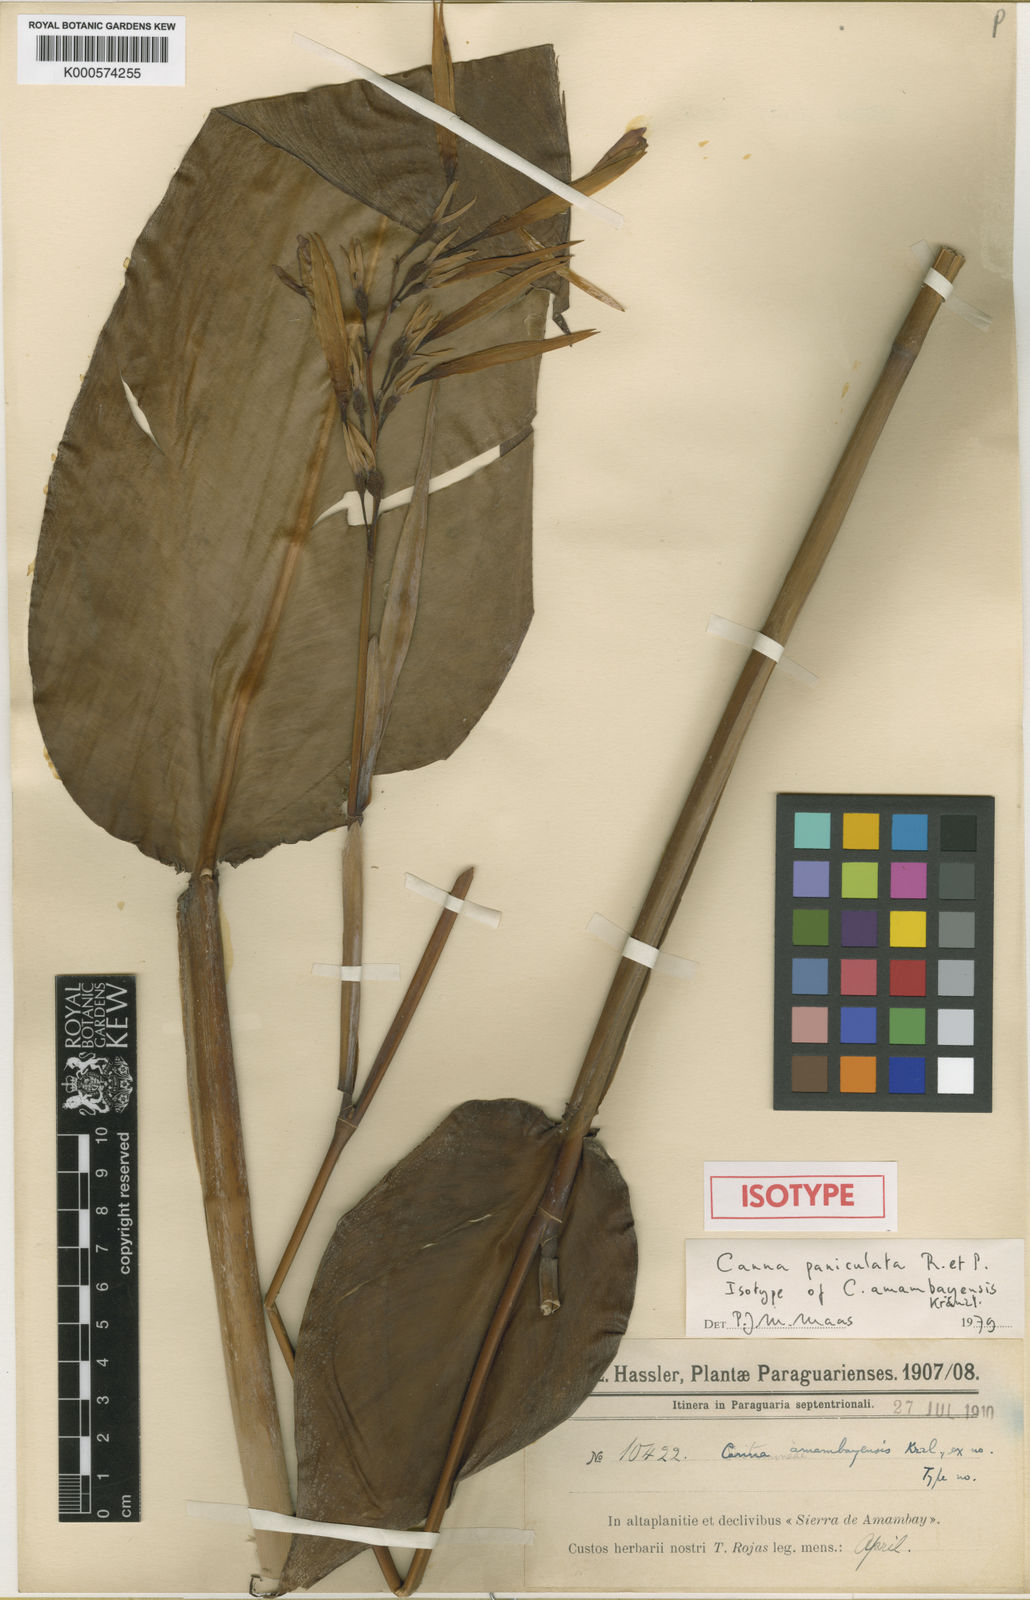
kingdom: Plantae
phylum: Tracheophyta
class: Liliopsida
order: Zingiberales
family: Cannaceae
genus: Canna
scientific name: Canna paniculata
